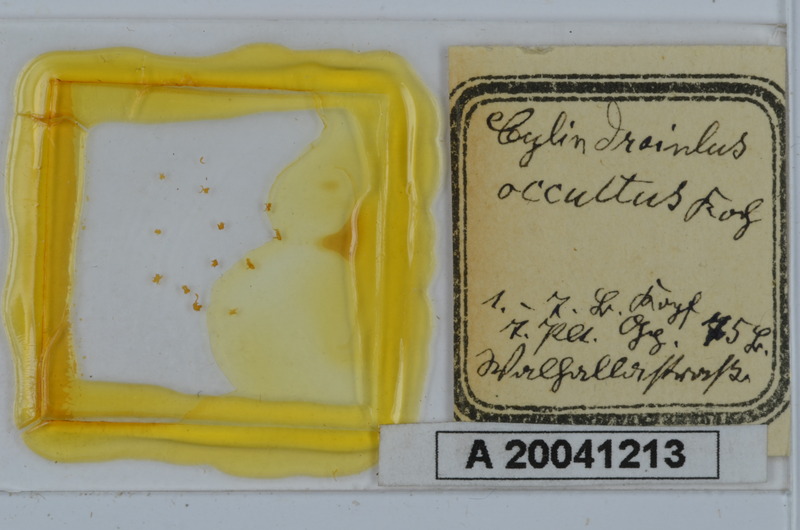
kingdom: Animalia
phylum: Arthropoda
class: Diplopoda
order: Julida
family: Julidae
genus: Kryphioiulus
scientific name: Kryphioiulus occultus
